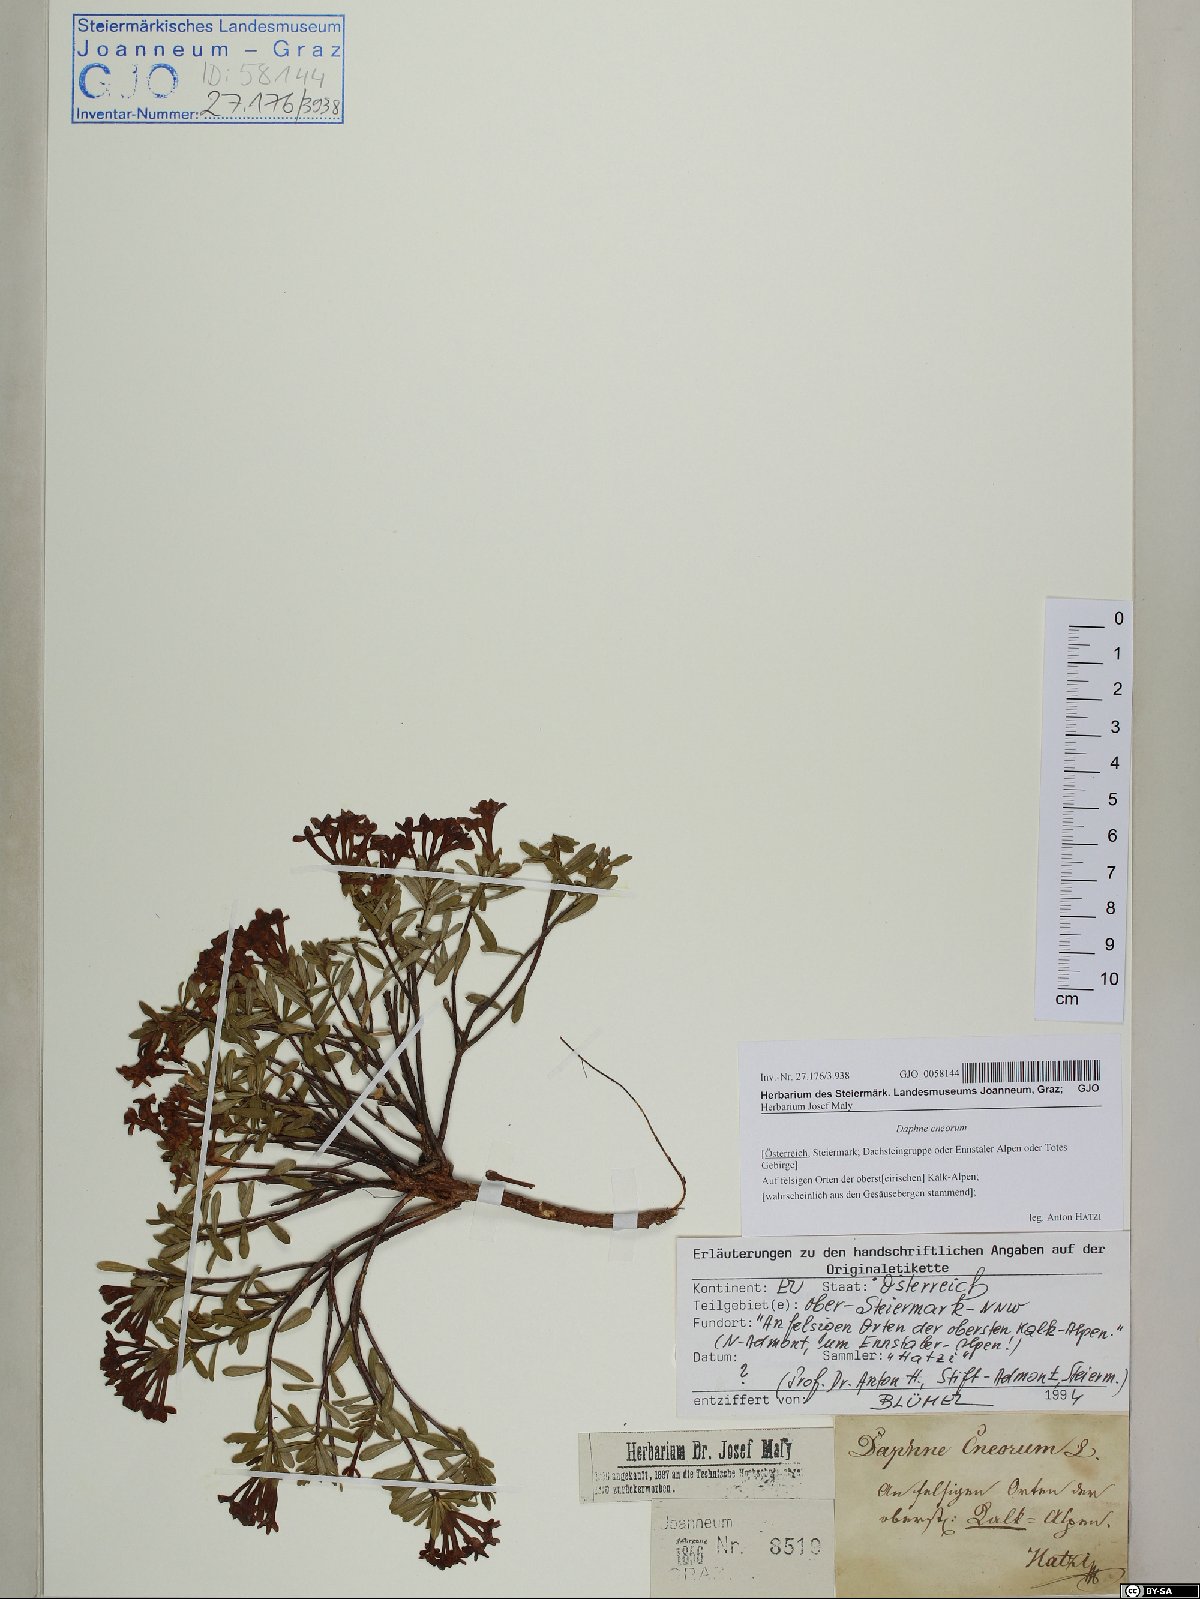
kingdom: Plantae
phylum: Tracheophyta
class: Magnoliopsida
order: Malvales
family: Thymelaeaceae
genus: Daphne
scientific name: Daphne cneorum
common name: Garland-flower
